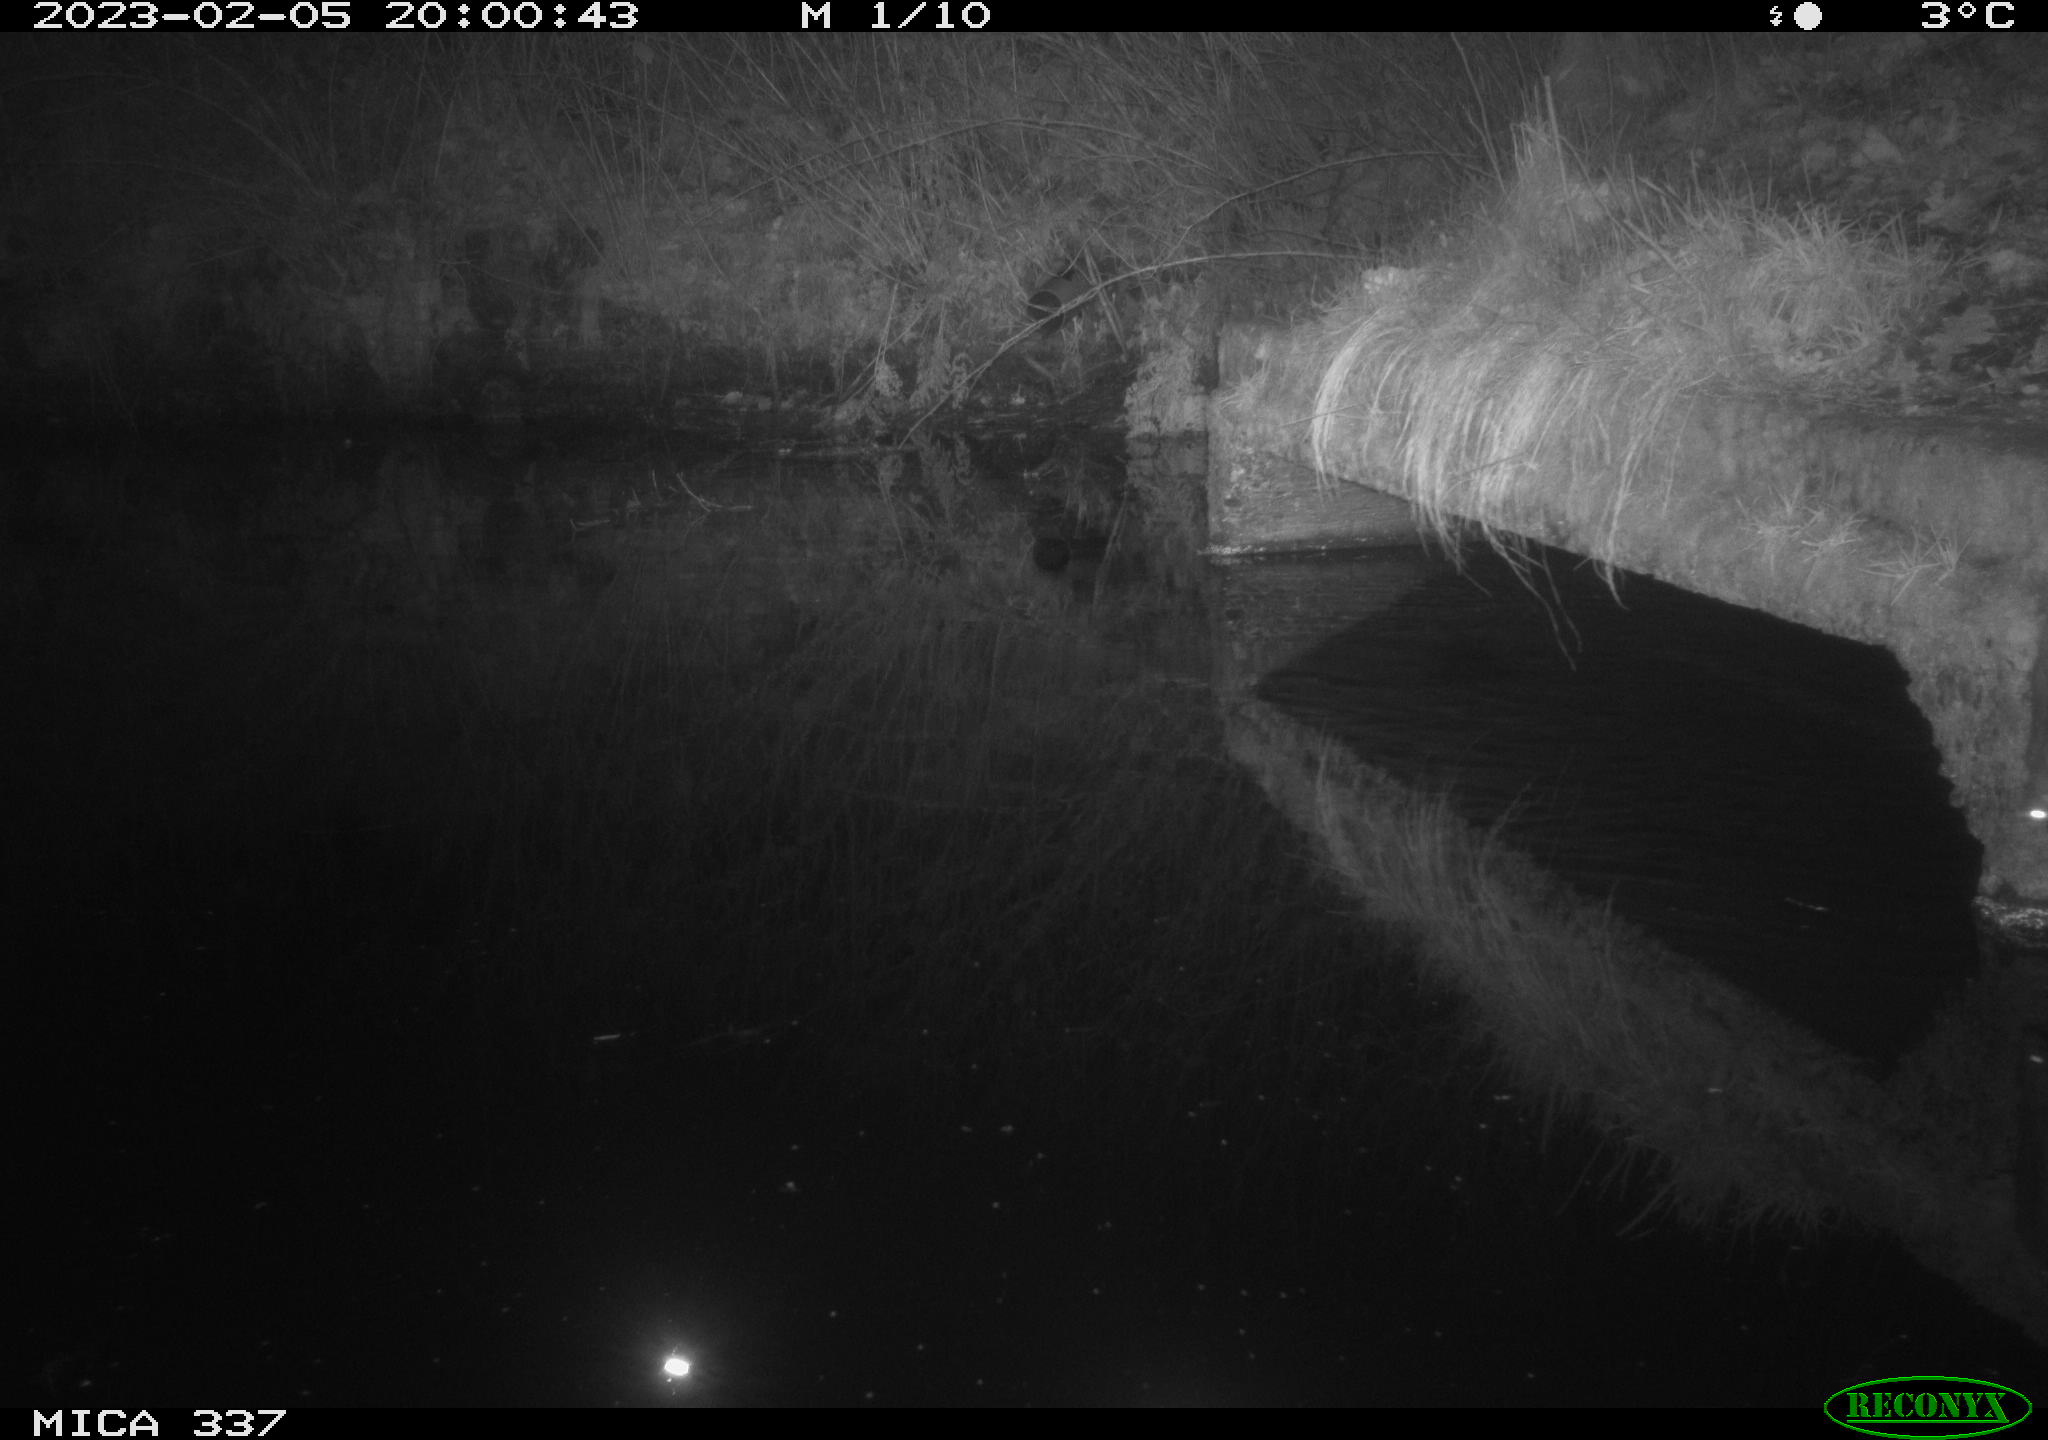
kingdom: Animalia
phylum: Chordata
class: Mammalia
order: Rodentia
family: Muridae
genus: Rattus
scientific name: Rattus norvegicus
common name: Brown rat
